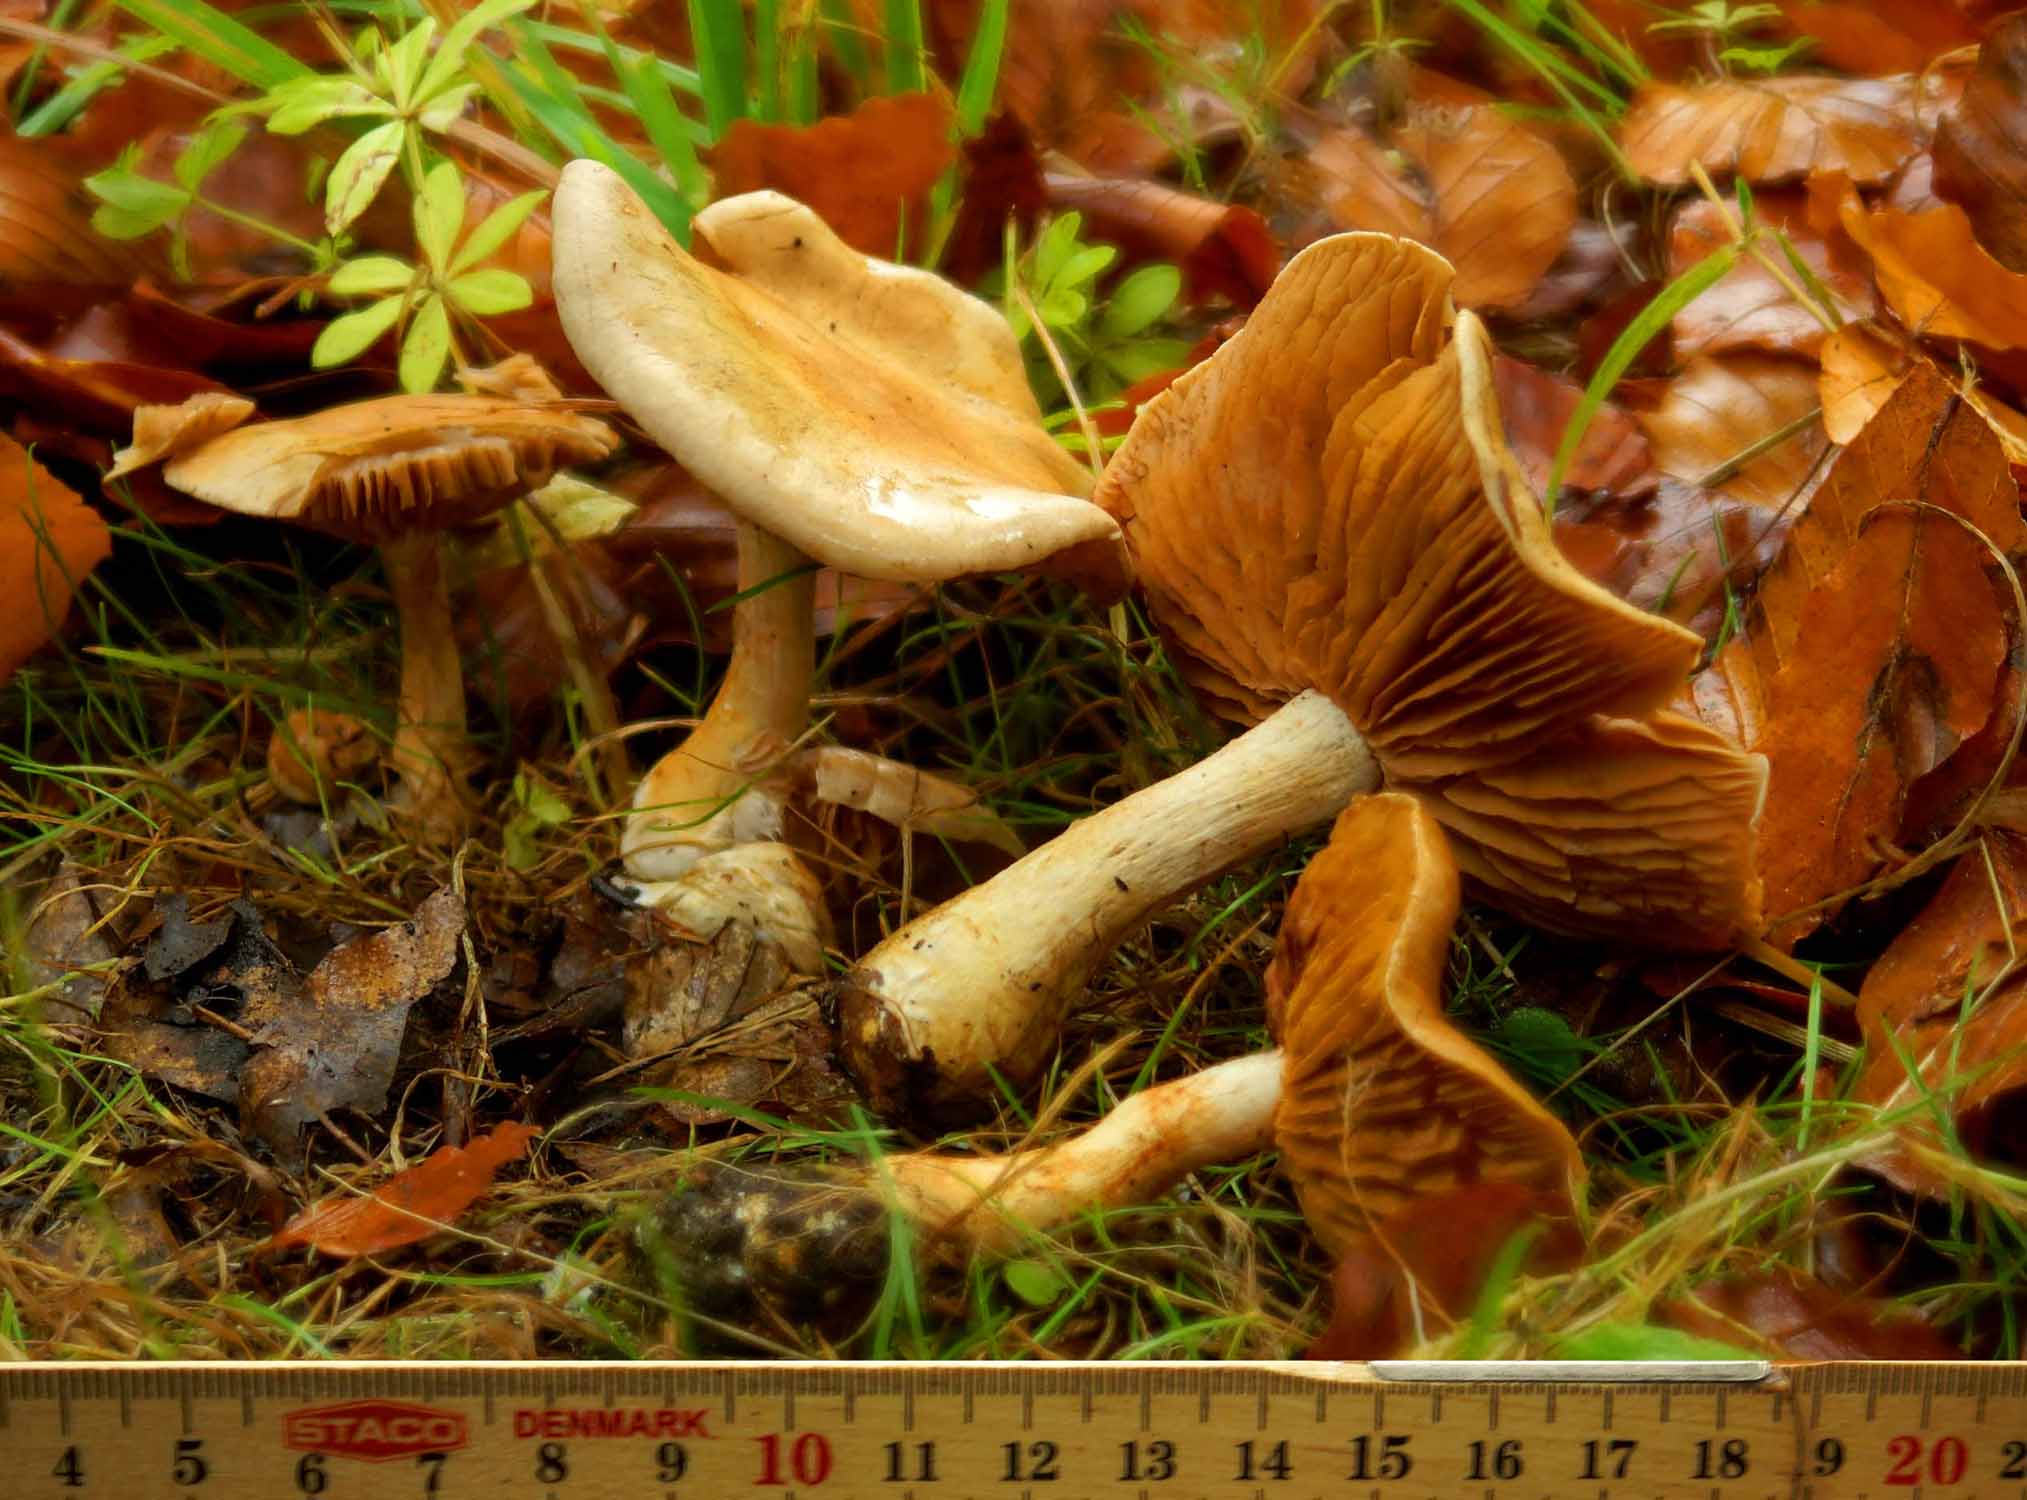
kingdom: Fungi
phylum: Basidiomycota
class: Agaricomycetes
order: Agaricales
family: Cortinariaceae
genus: Cortinarius
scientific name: Cortinarius
